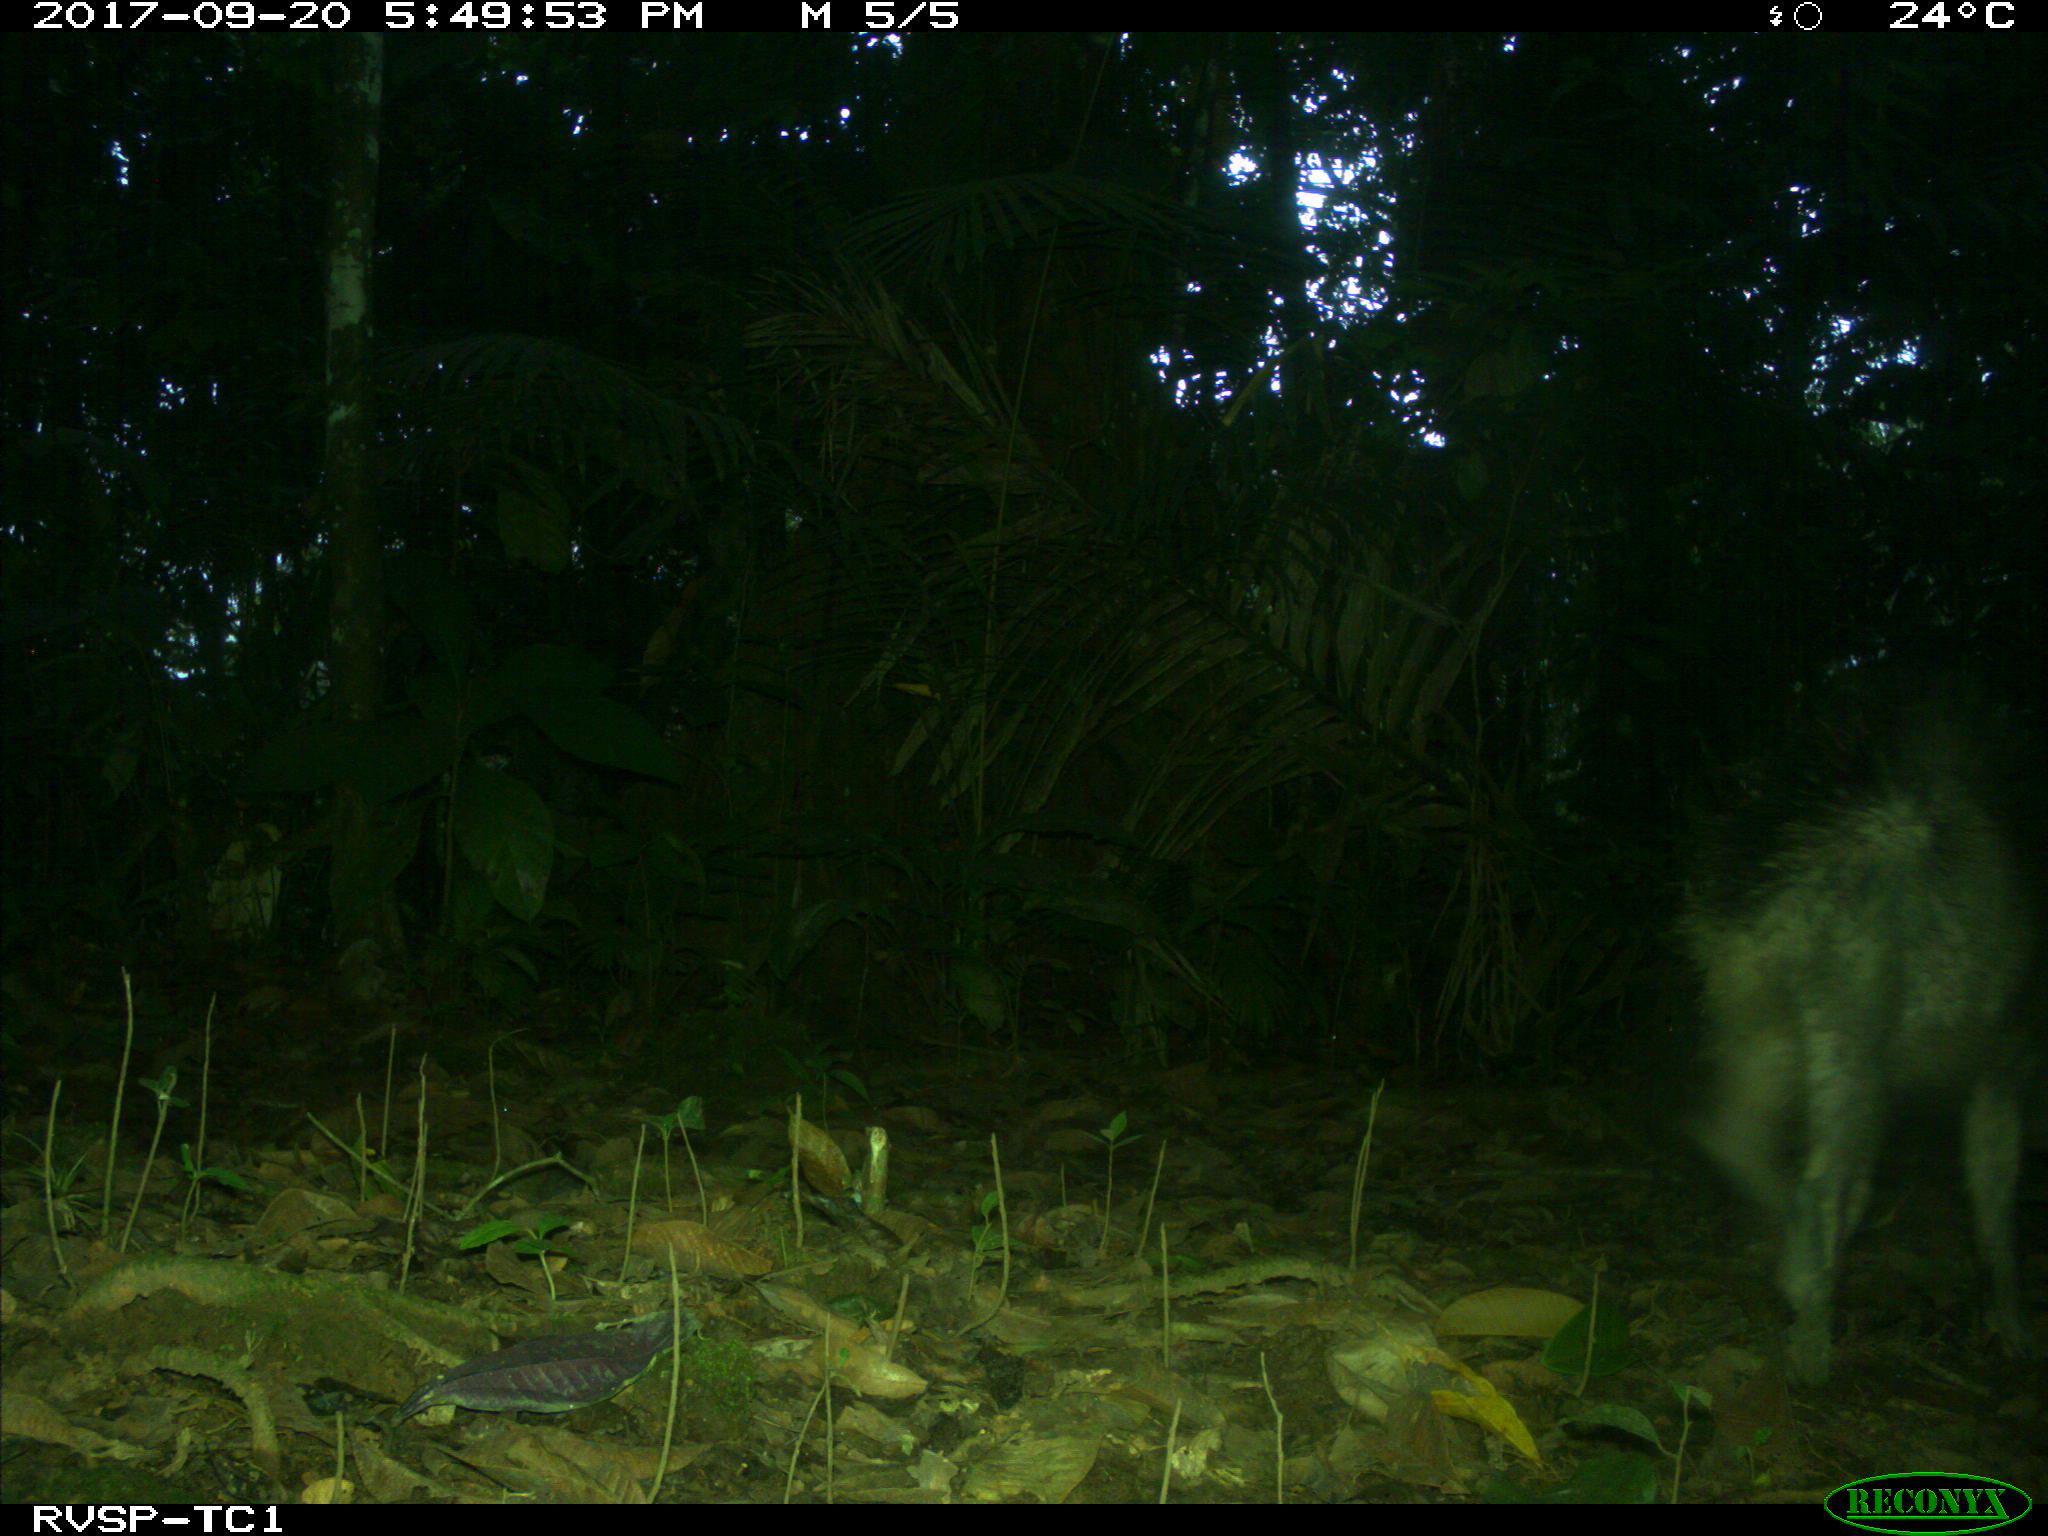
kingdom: Animalia
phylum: Chordata
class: Mammalia
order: Artiodactyla
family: Tayassuidae
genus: Tayassu
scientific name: Tayassu pecari
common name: White-lipped peccary
